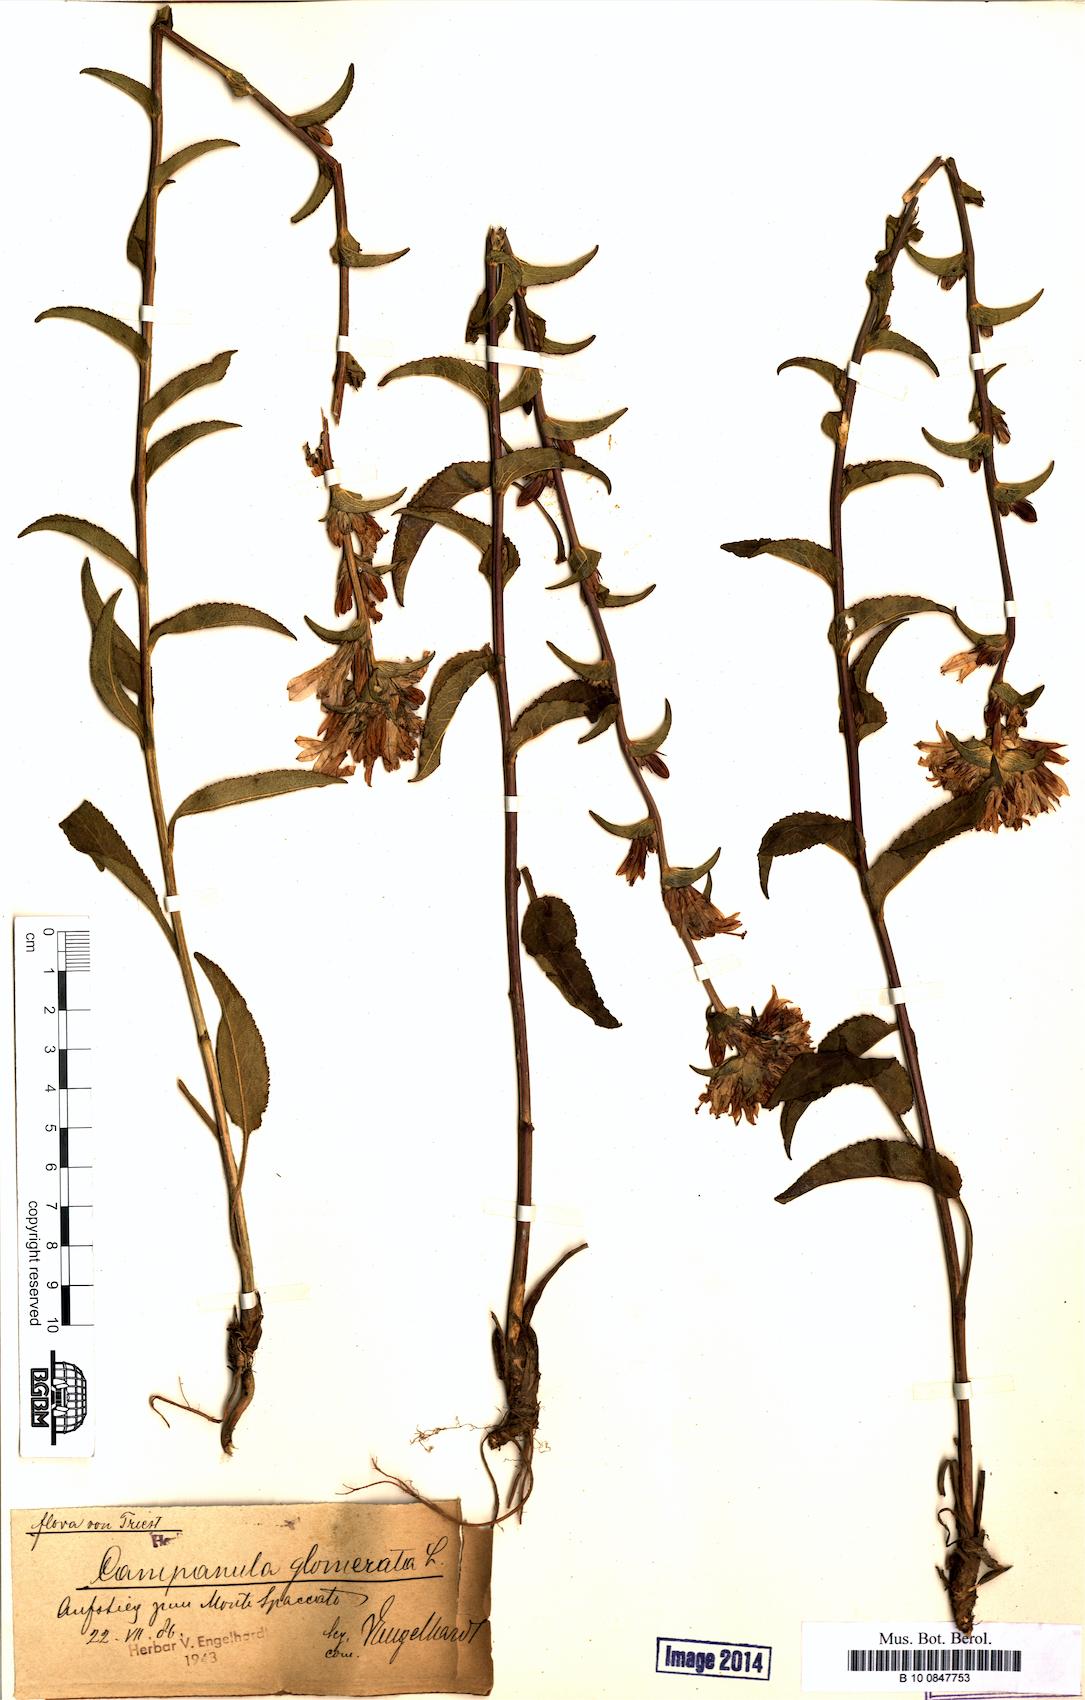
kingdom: Plantae
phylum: Tracheophyta
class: Magnoliopsida
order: Asterales
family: Campanulaceae
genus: Campanula
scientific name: Campanula glomerata
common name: Clustered bellflower
